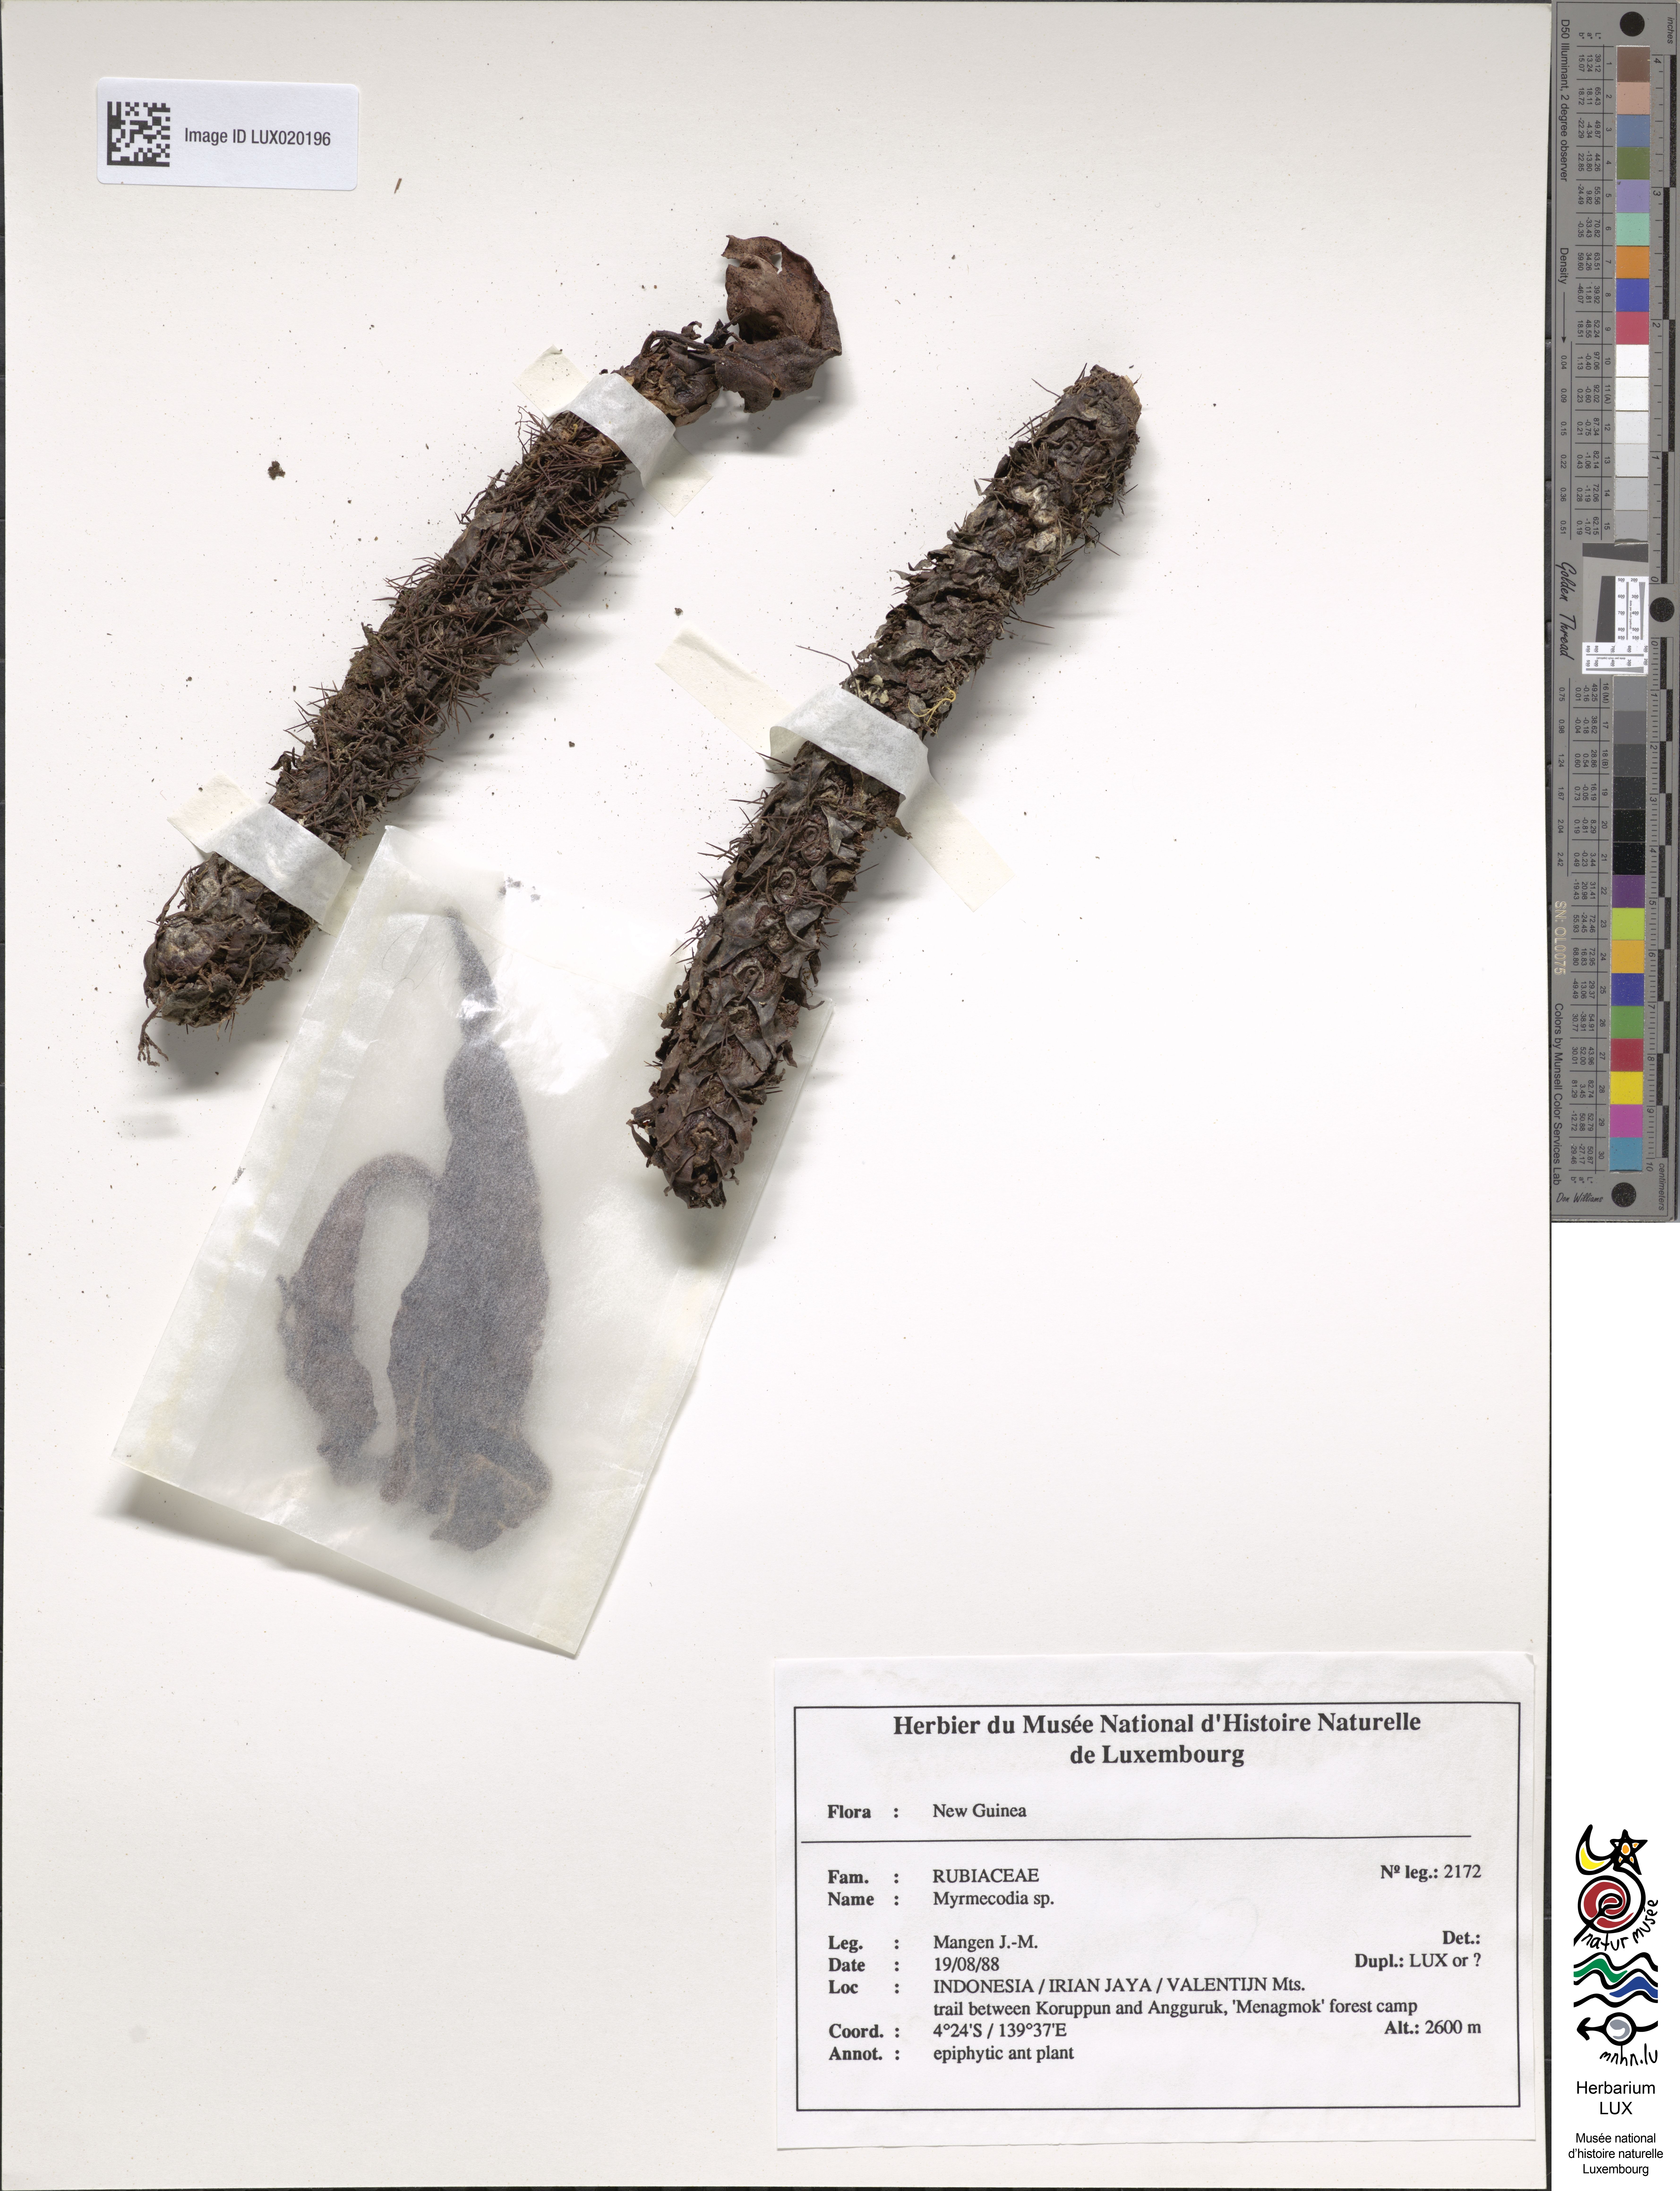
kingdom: Plantae
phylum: Tracheophyta
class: Magnoliopsida
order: Gentianales
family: Rubiaceae
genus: Myrmecodia
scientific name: Myrmecodia
